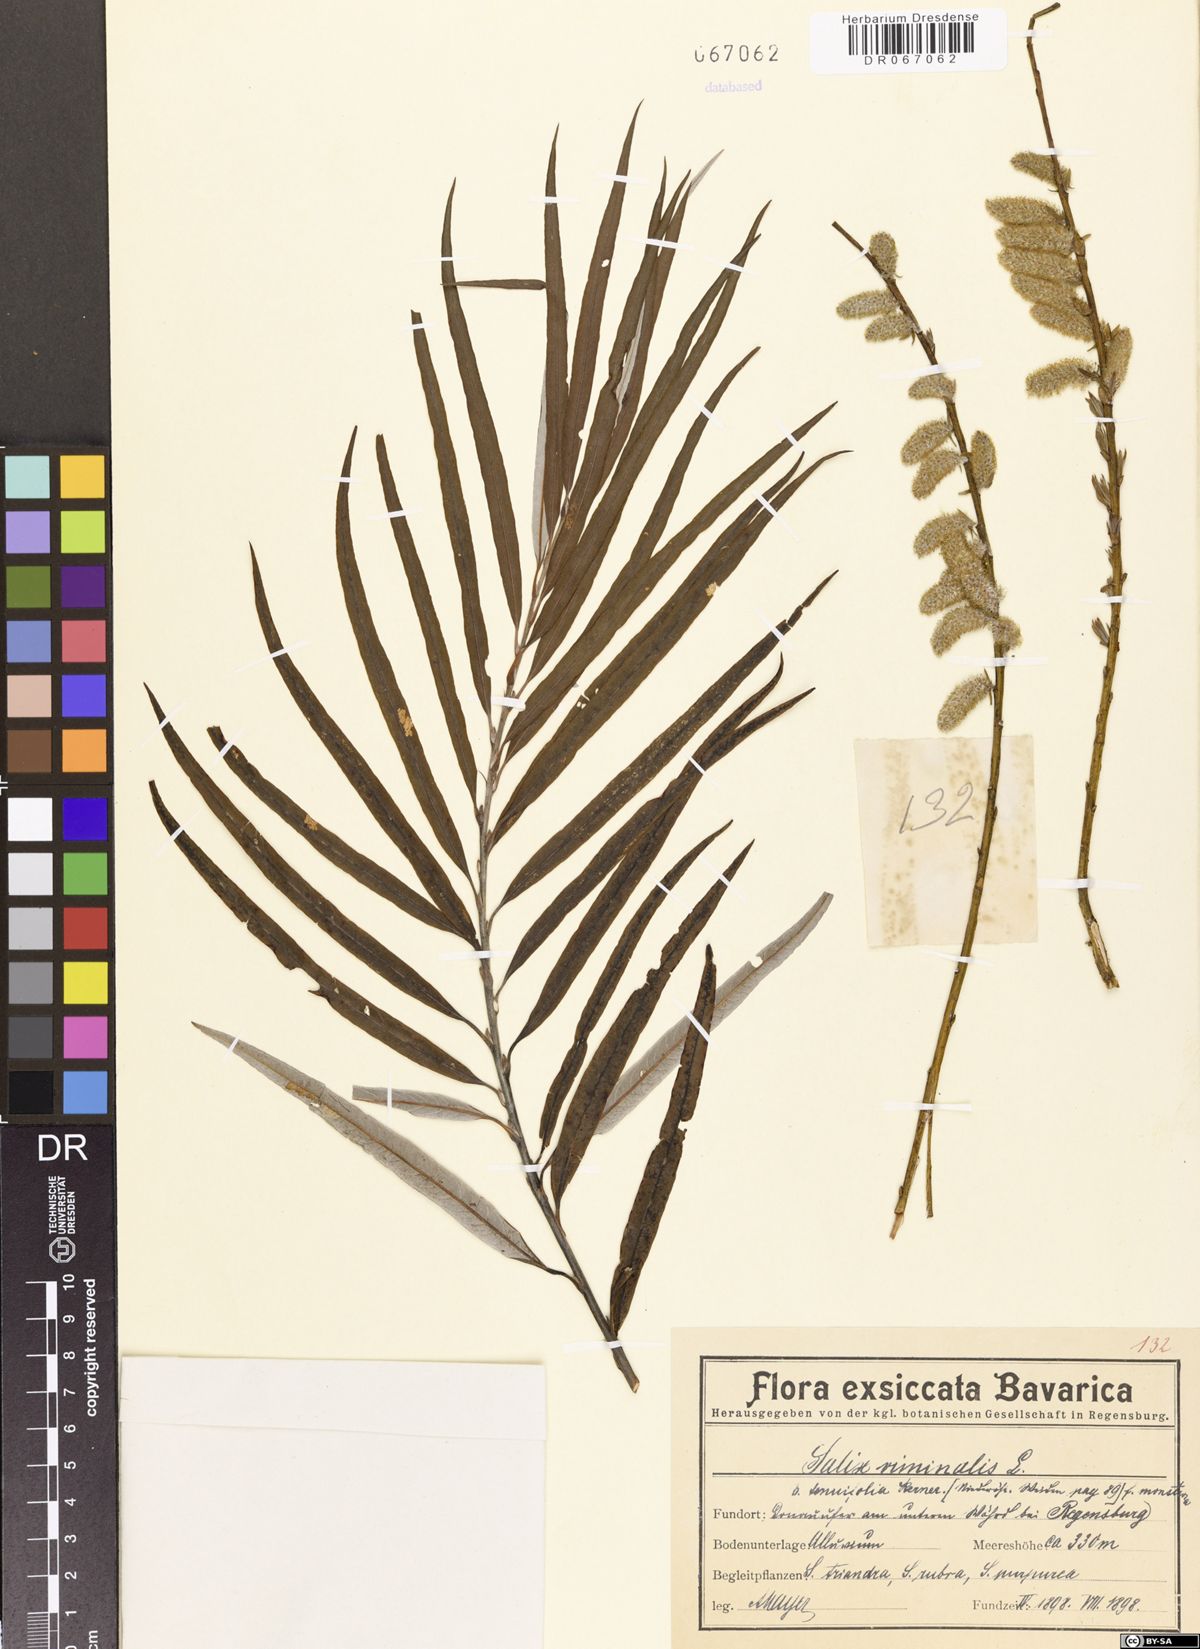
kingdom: Plantae
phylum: Tracheophyta
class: Magnoliopsida
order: Malpighiales
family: Salicaceae
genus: Salix
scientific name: Salix viminalis
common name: Osier
